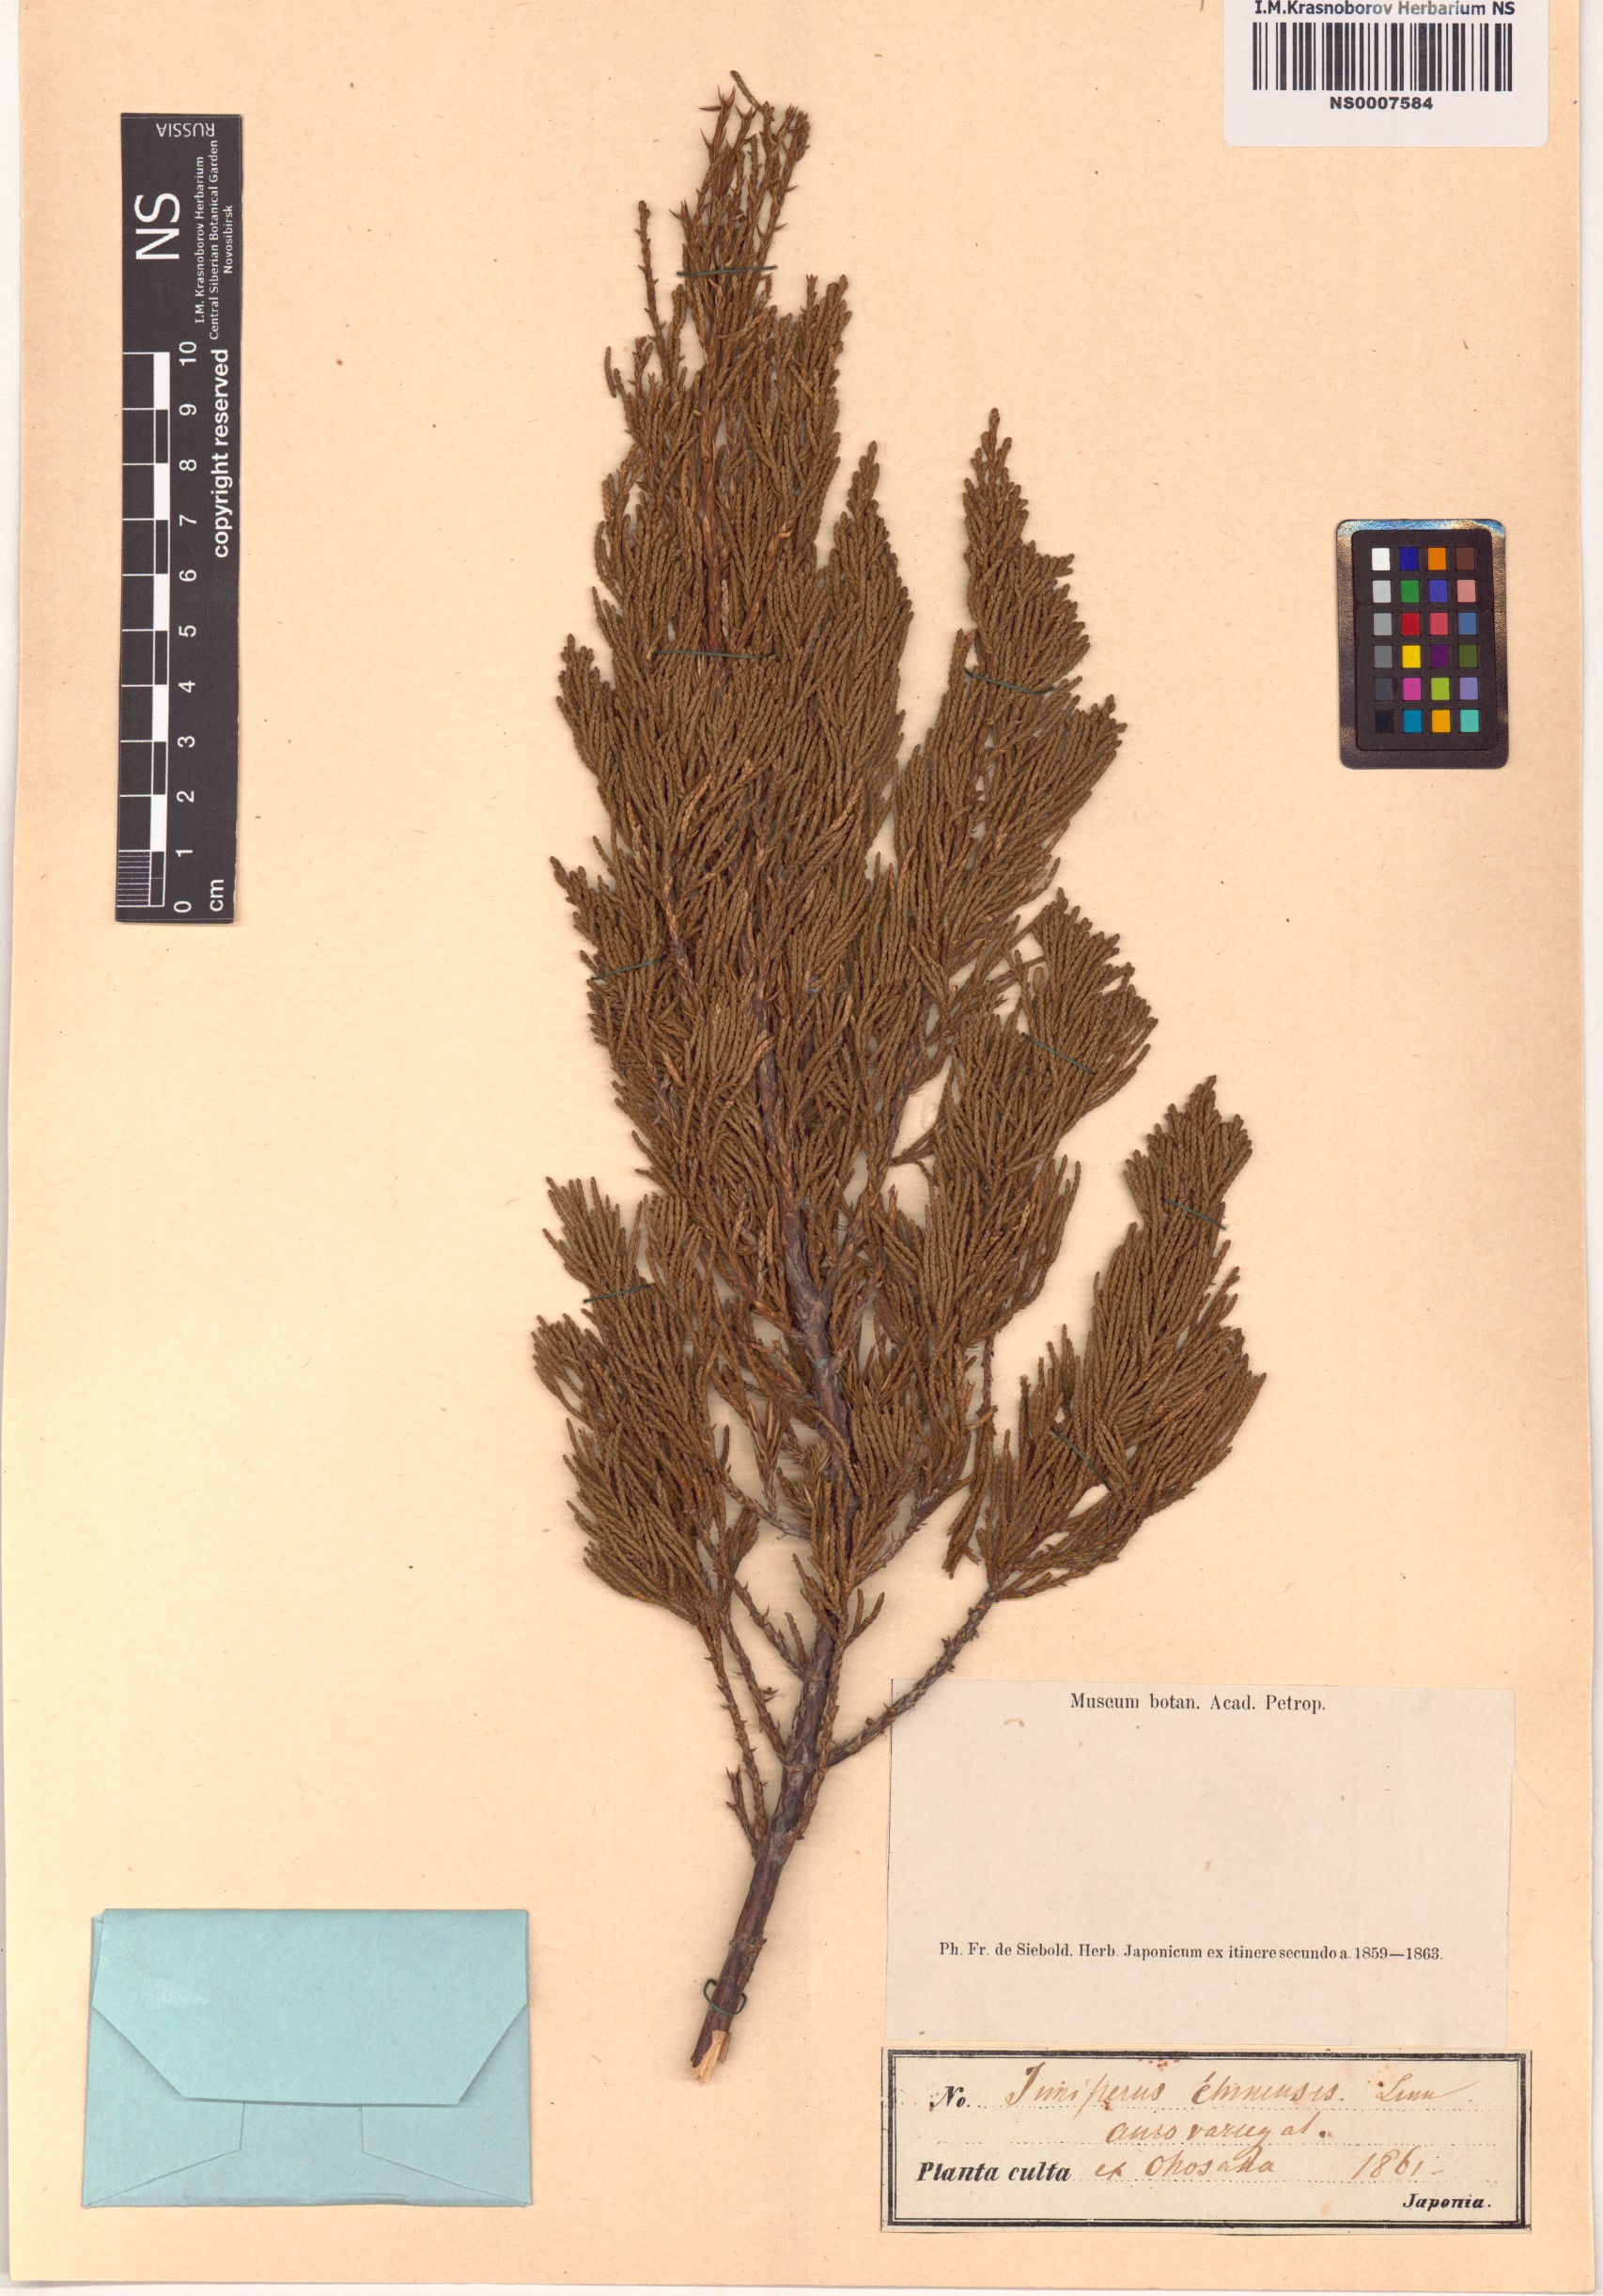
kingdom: Plantae
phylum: Tracheophyta
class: Pinopsida
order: Pinales
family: Cupressaceae
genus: Juniperus
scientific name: Juniperus chinensis
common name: Chinese juniper
